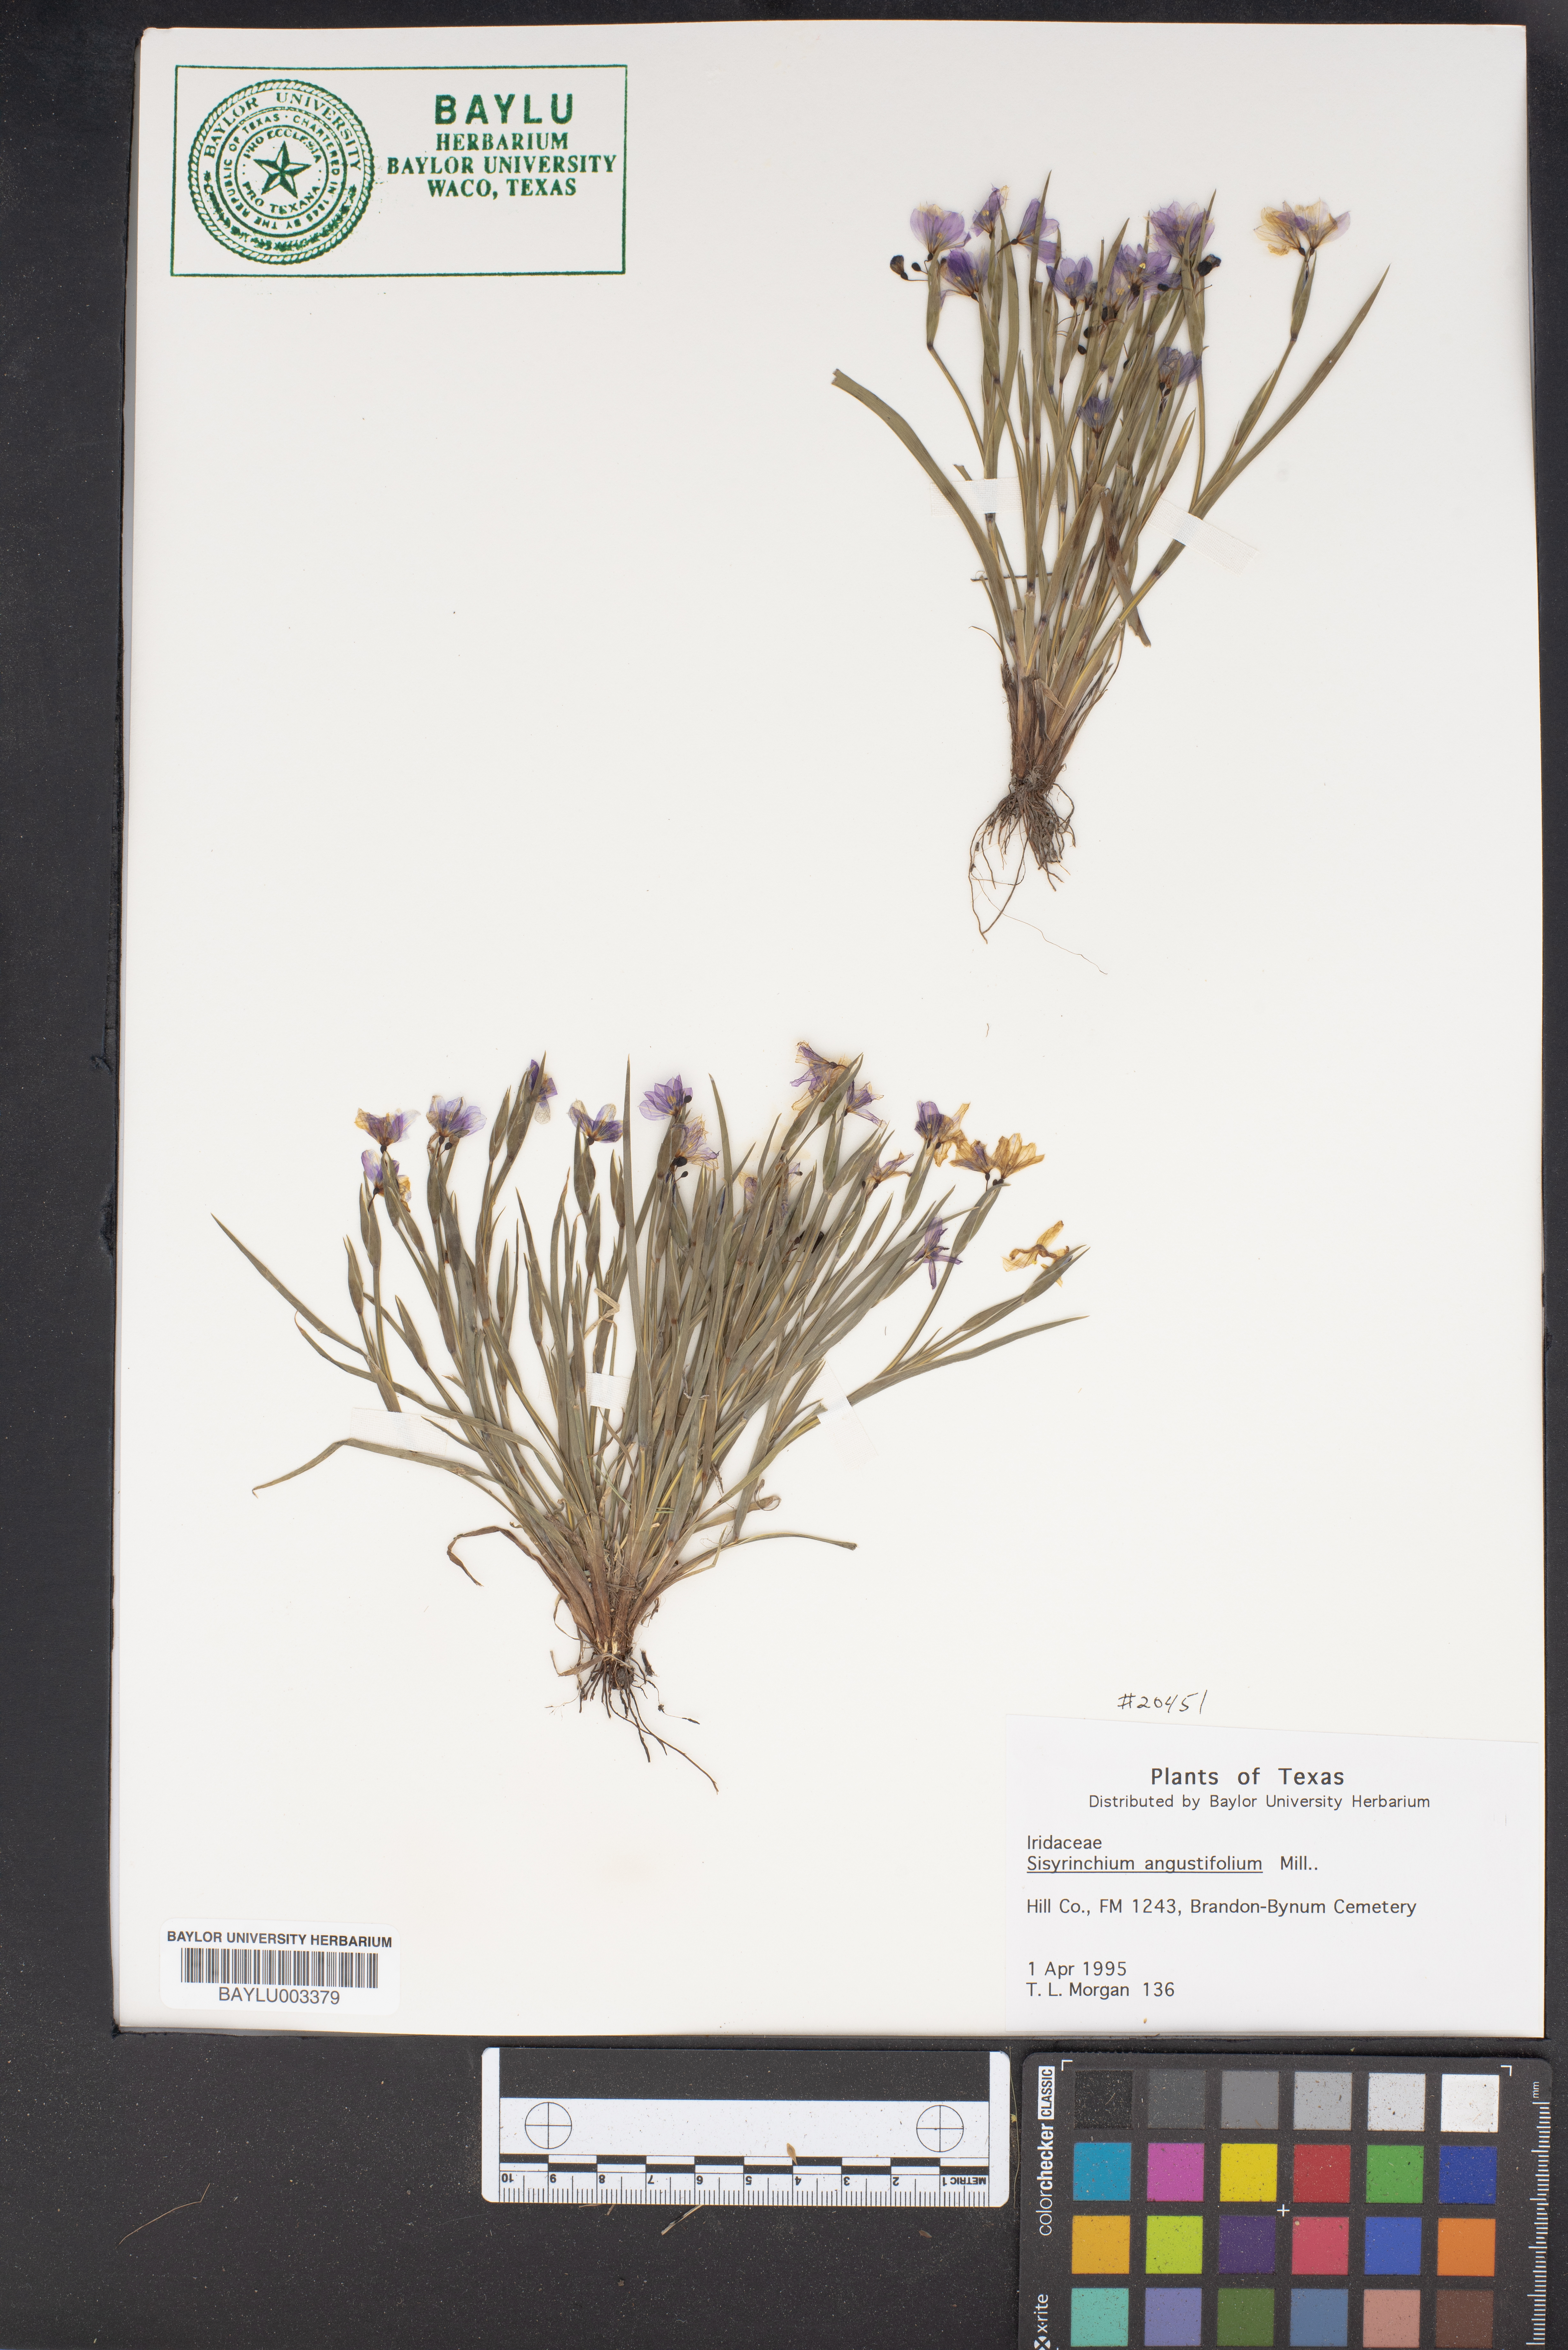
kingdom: Plantae
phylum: Tracheophyta
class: Liliopsida
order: Asparagales
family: Iridaceae
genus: Sisyrinchium
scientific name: Sisyrinchium angustifolium
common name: Narrow-leaf blue-eyed-grass
